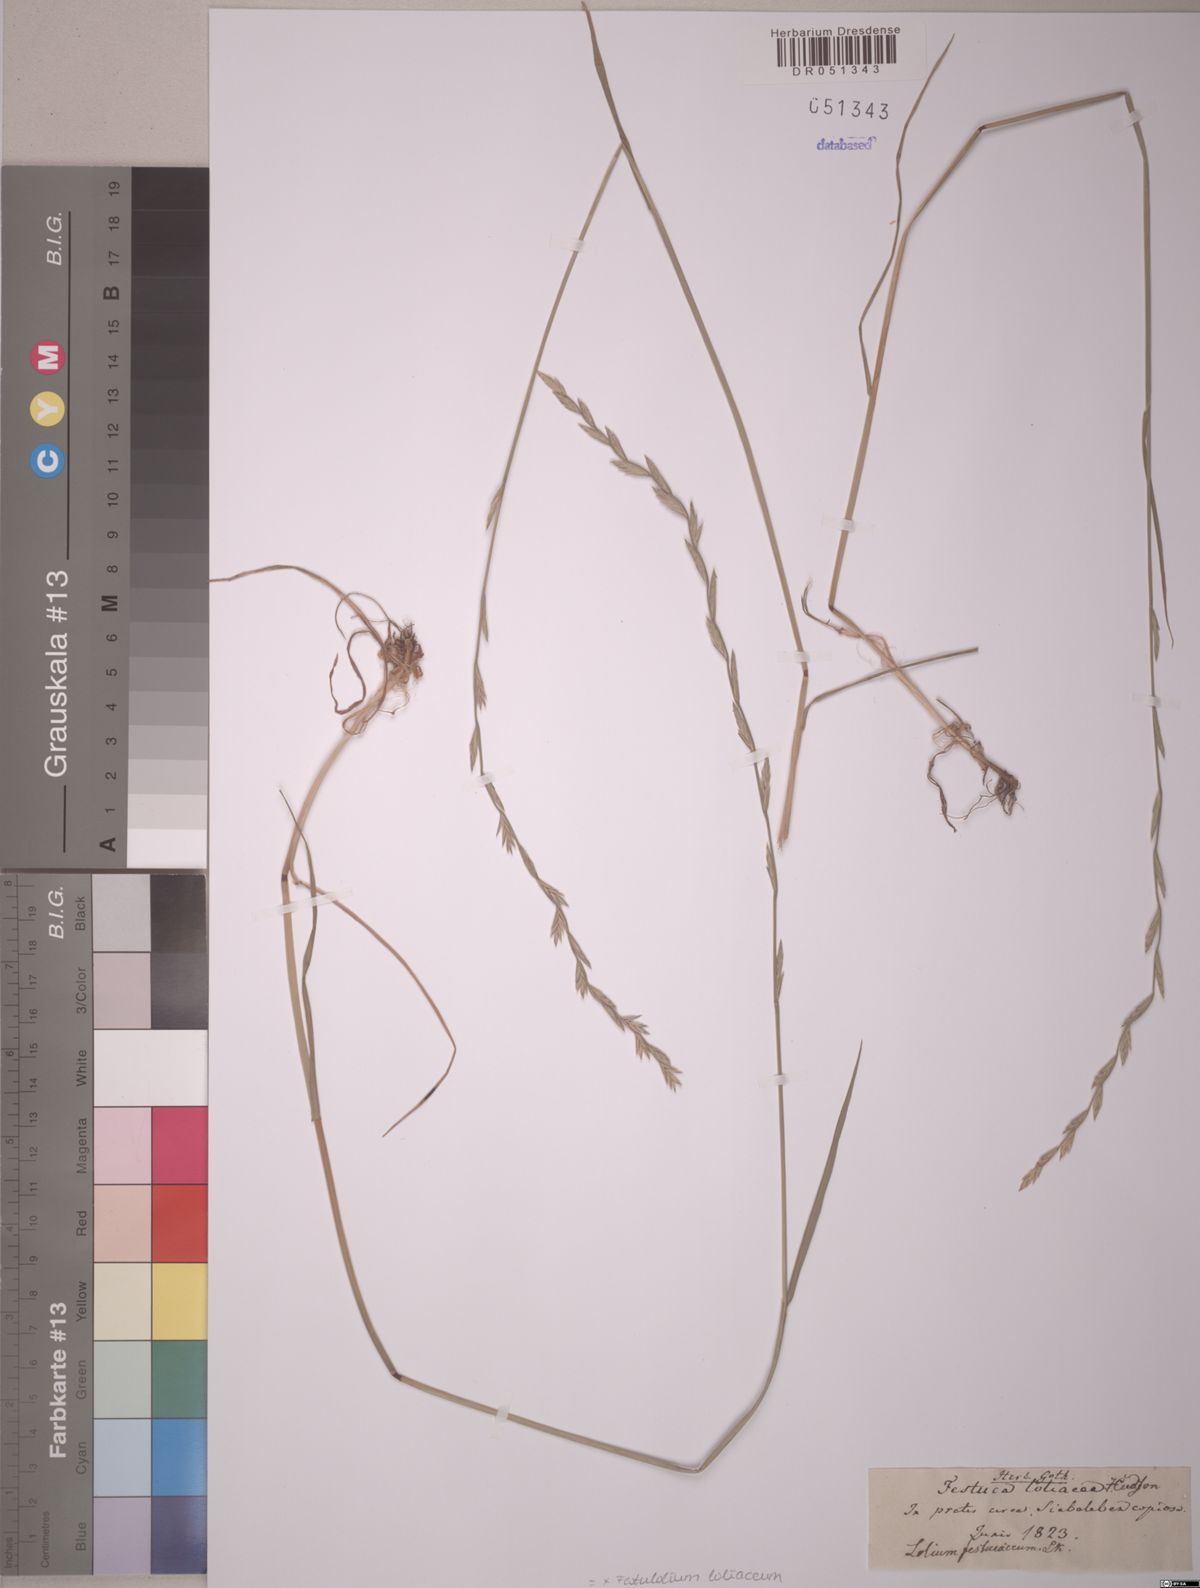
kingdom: Plantae
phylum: Tracheophyta
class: Liliopsida
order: Poales
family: Poaceae
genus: Lolium
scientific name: Lolium elongatum
